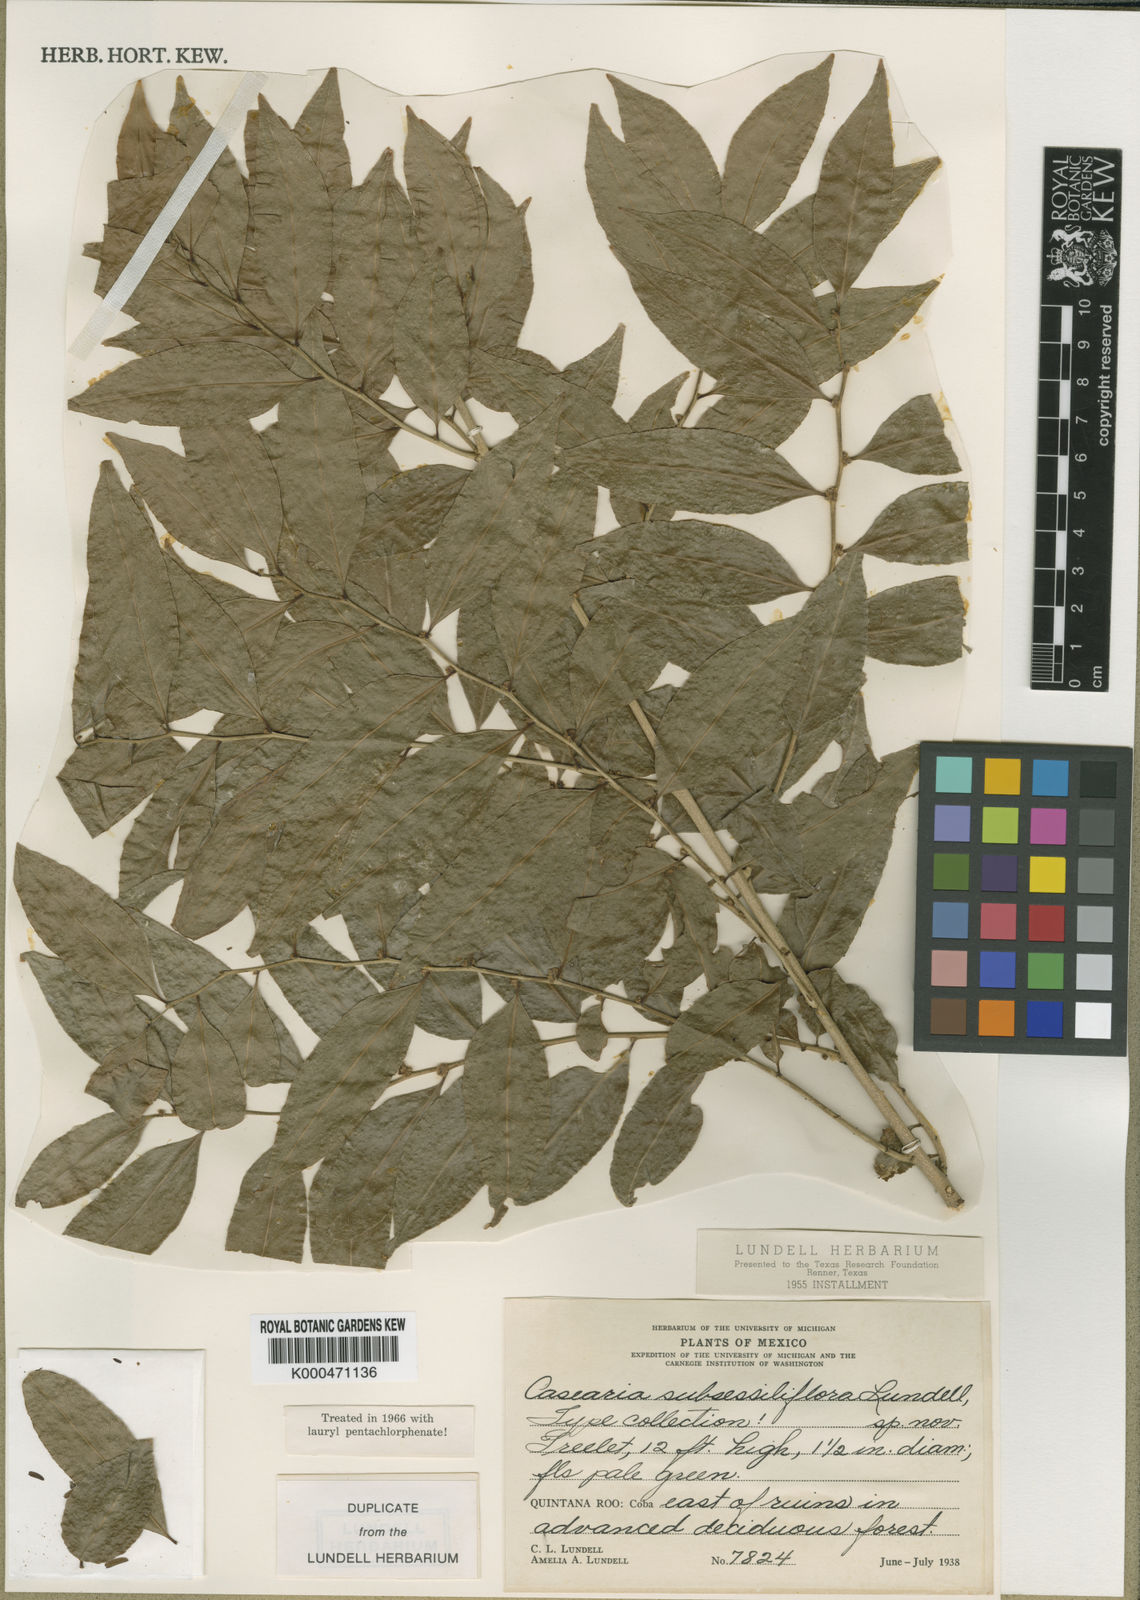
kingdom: Plantae
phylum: Tracheophyta
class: Magnoliopsida
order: Malpighiales
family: Salicaceae
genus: Casearia
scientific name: Casearia sylvestris
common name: Wild sage
